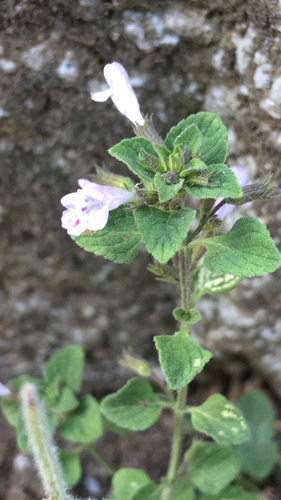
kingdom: Plantae
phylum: Tracheophyta
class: Magnoliopsida
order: Lamiales
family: Lamiaceae
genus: Clinopodium
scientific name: Clinopodium nepeta
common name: Lesser calamint
